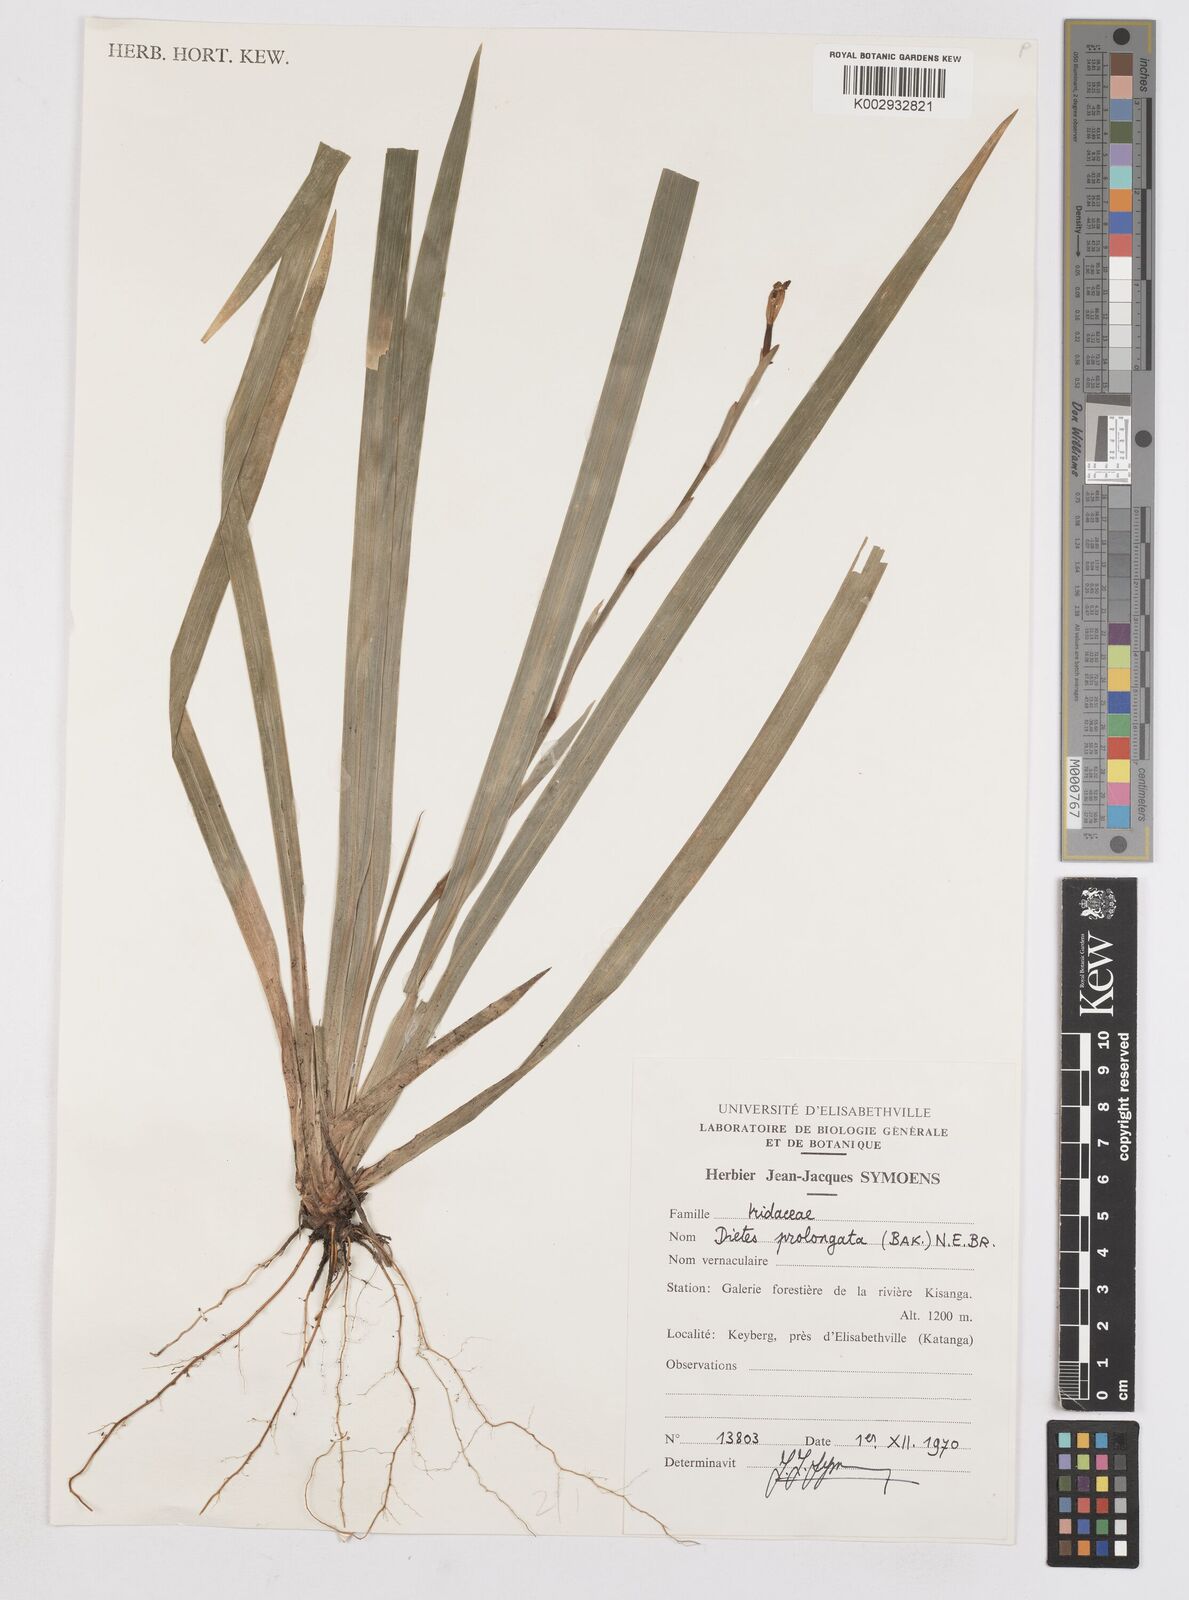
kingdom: Plantae
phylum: Tracheophyta
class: Liliopsida
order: Asparagales
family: Iridaceae
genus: Dietes
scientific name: Dietes iridioides
